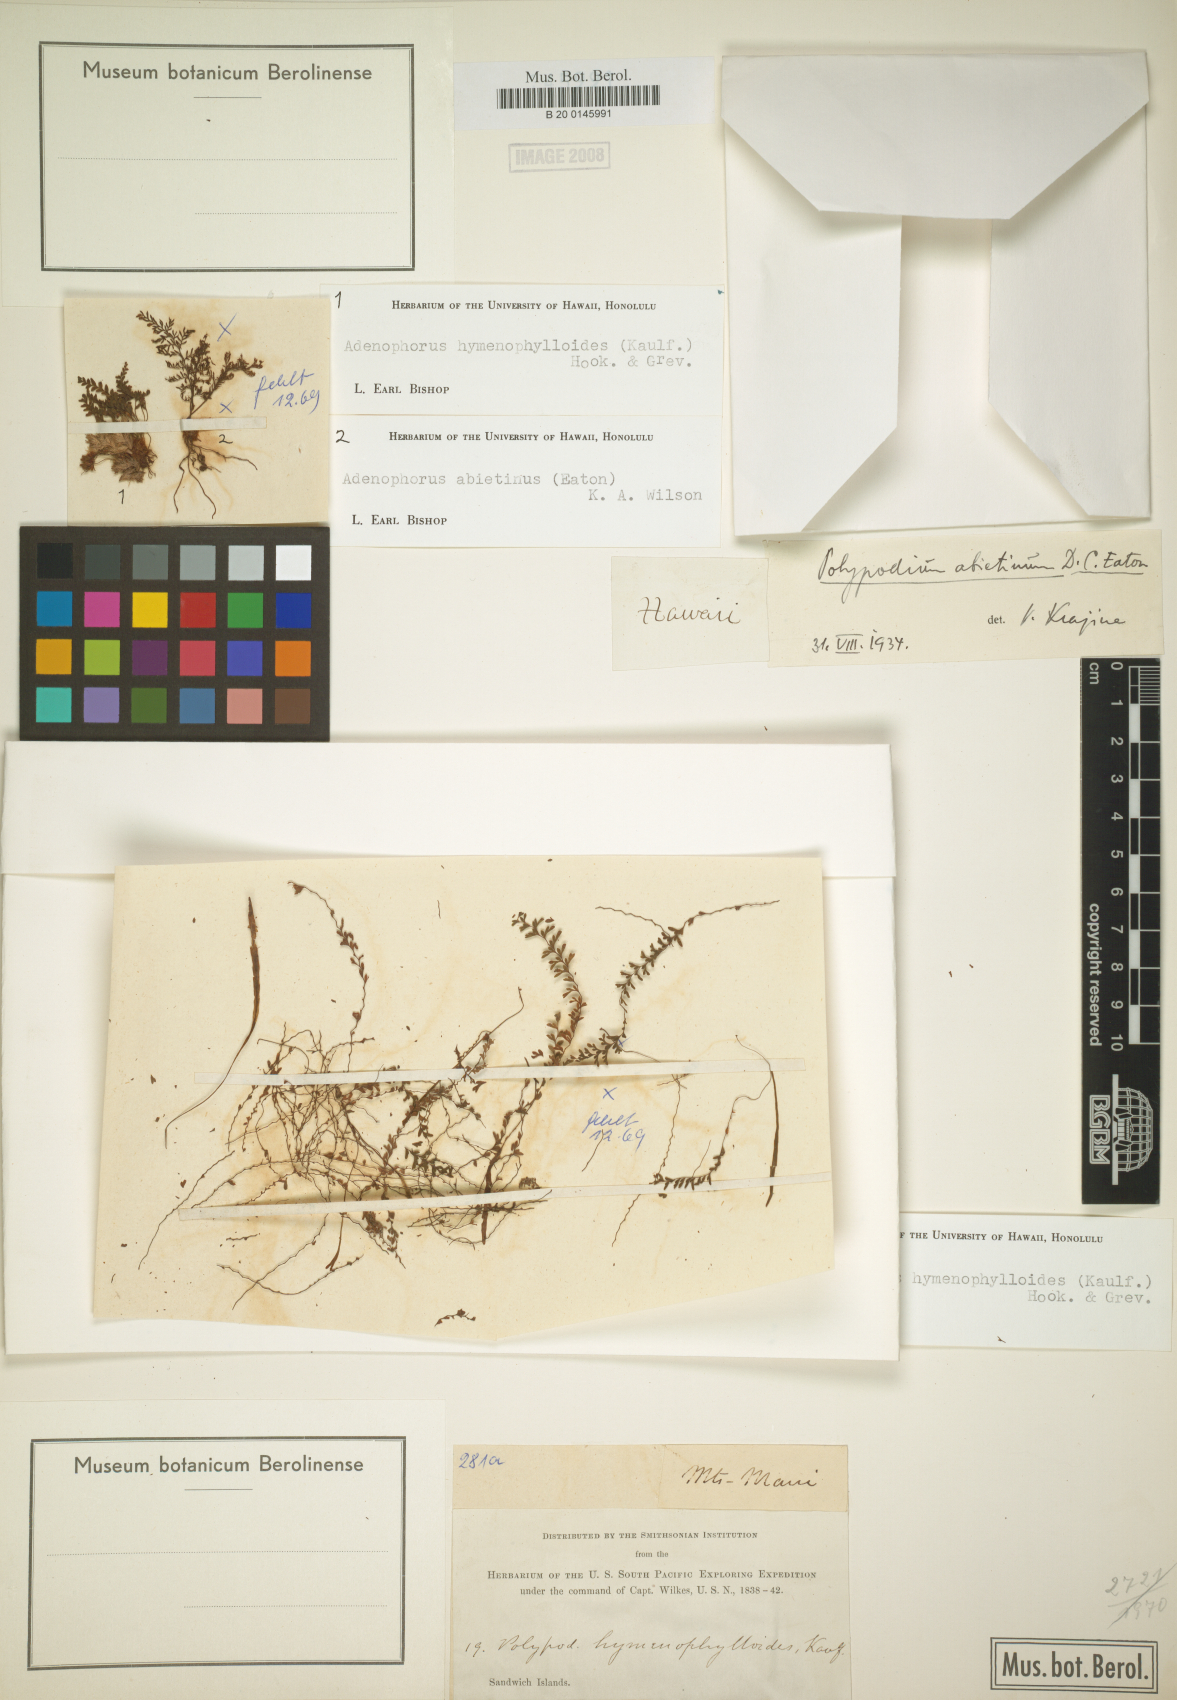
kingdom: Plantae
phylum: Tracheophyta
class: Polypodiopsida
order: Polypodiales
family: Polypodiaceae
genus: Adenophorus
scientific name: Adenophorus hymenophylloides
